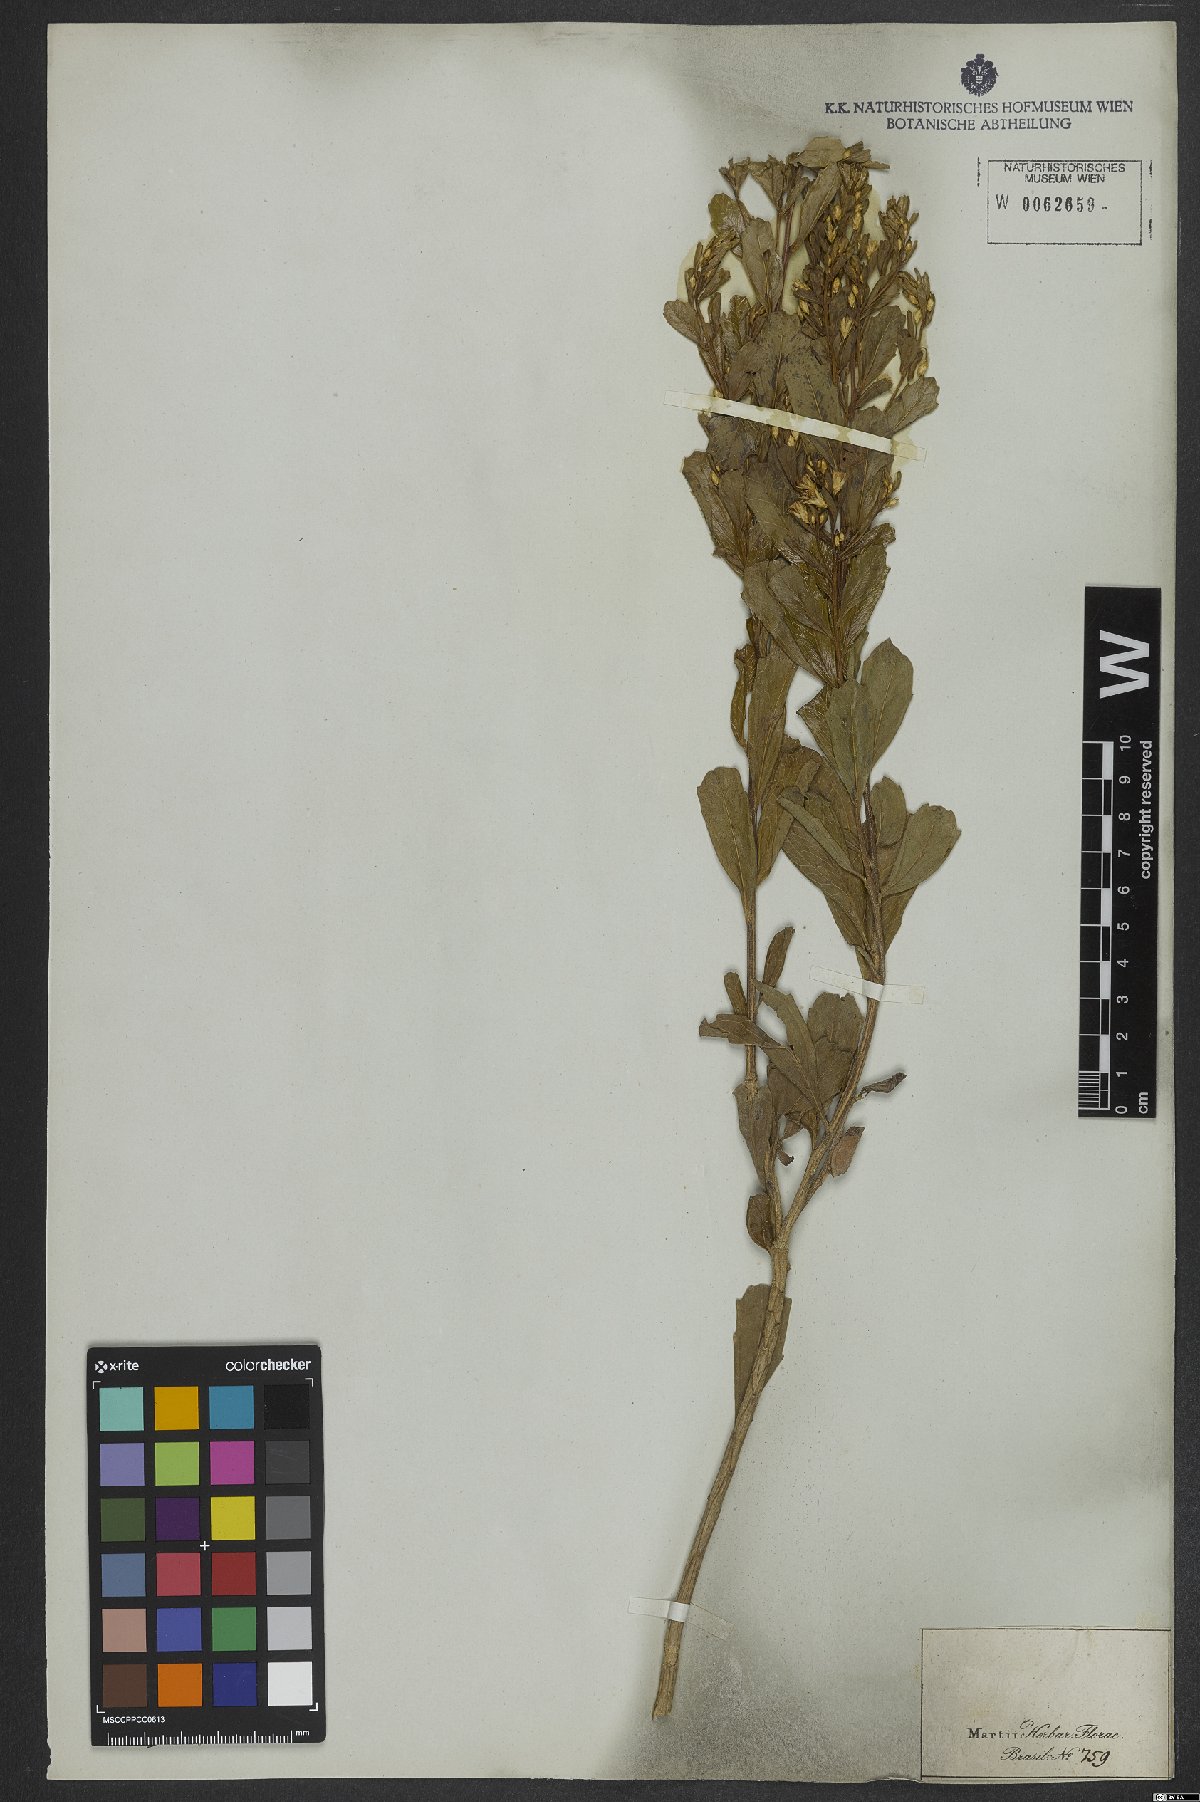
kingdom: Plantae
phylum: Tracheophyta
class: Magnoliopsida
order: Asterales
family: Asteraceae
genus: Baccharis
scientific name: Baccharis retusa
